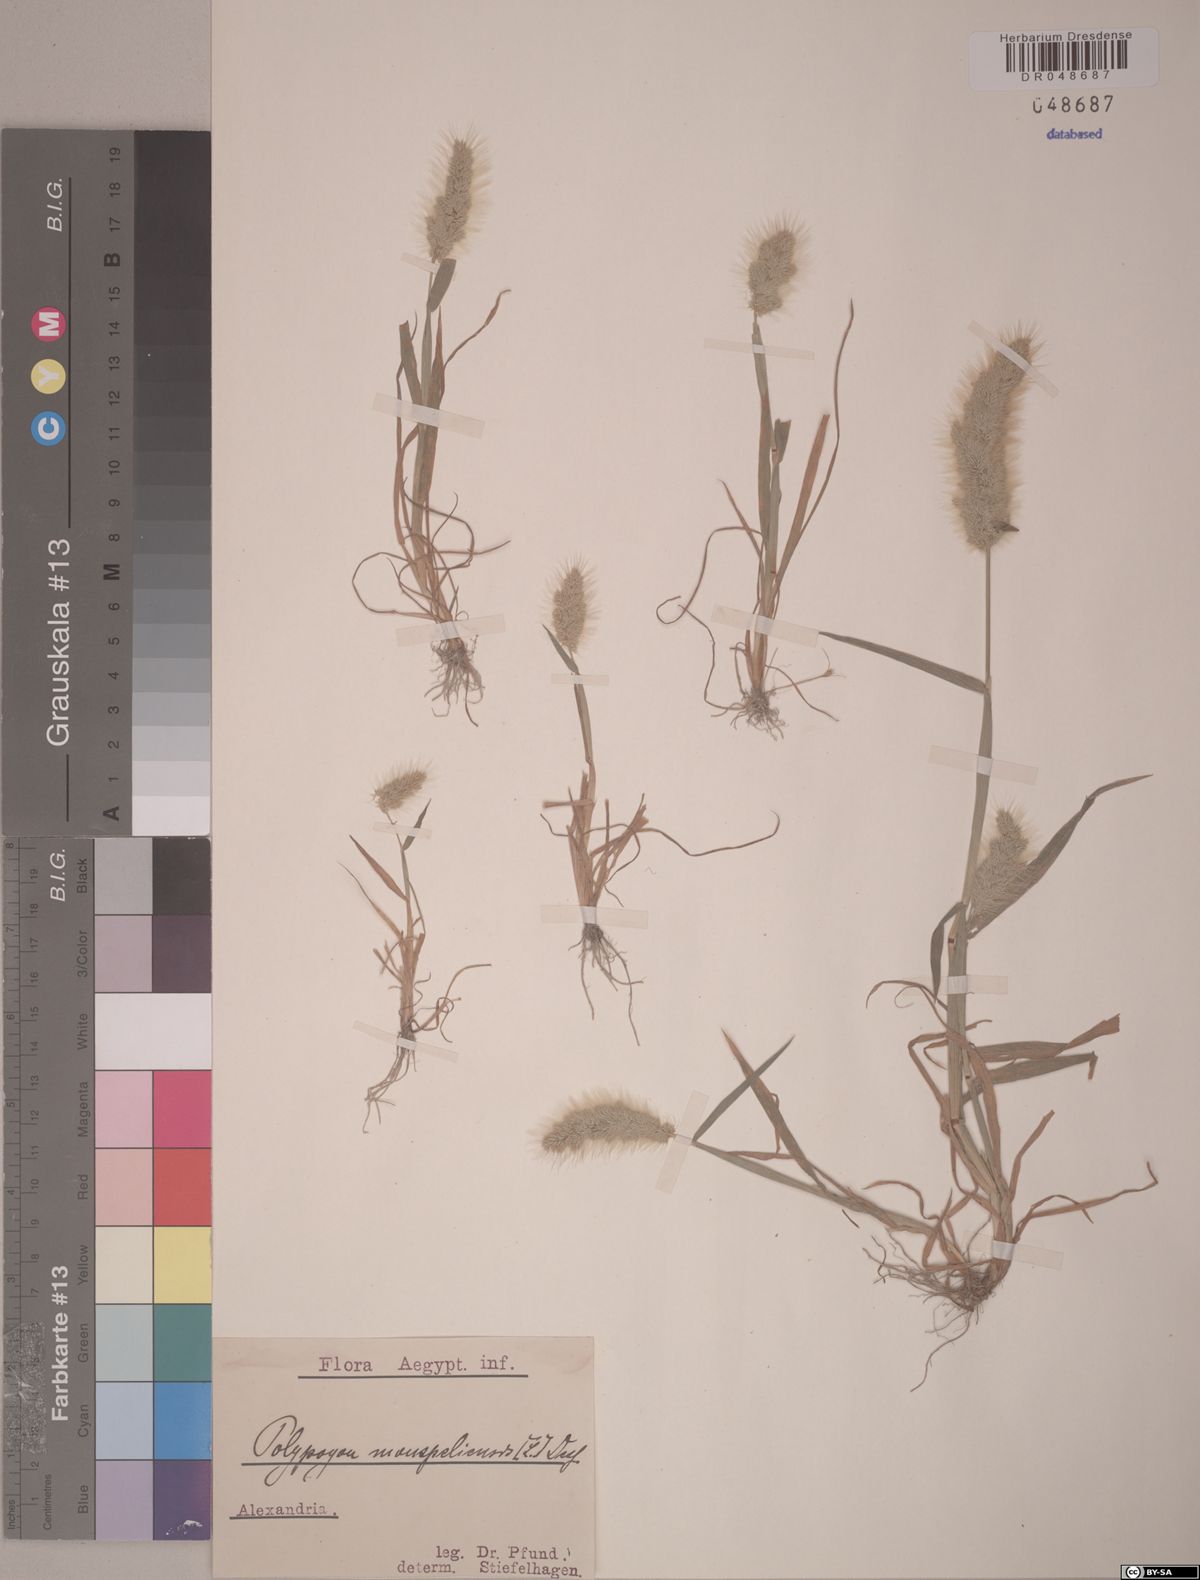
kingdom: Plantae
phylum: Tracheophyta
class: Liliopsida
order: Poales
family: Poaceae
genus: Polypogon
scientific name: Polypogon monspeliensis
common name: Annual rabbitsfoot grass
